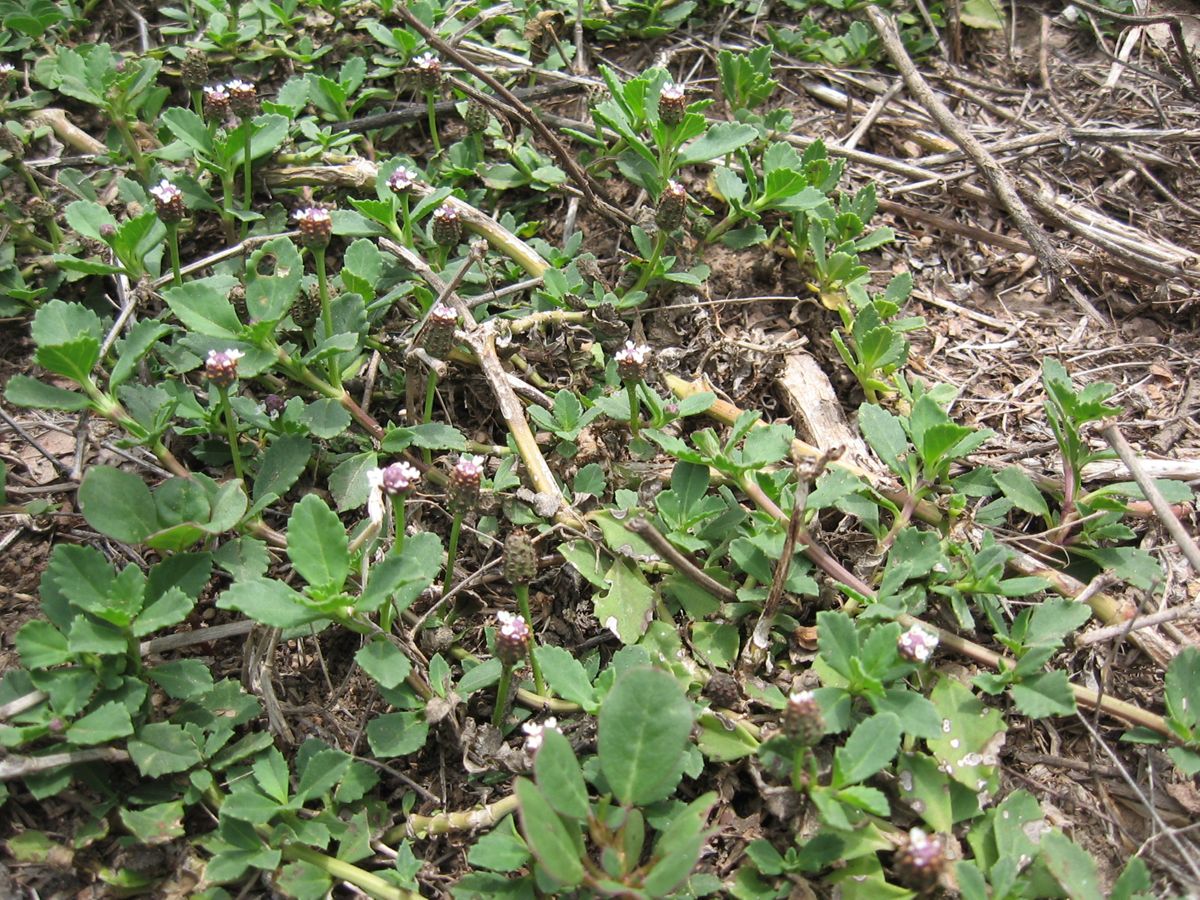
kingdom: Plantae
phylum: Tracheophyta
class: Magnoliopsida
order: Lamiales
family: Verbenaceae
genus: Phyla
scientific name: Phyla nodiflora
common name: Frogfruit
